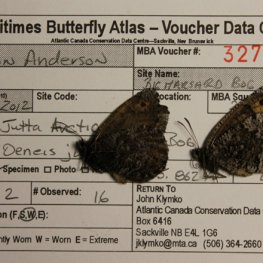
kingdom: Animalia
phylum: Arthropoda
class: Insecta
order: Lepidoptera
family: Nymphalidae
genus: Oeneis
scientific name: Oeneis jutta
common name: Jutta Arctic
